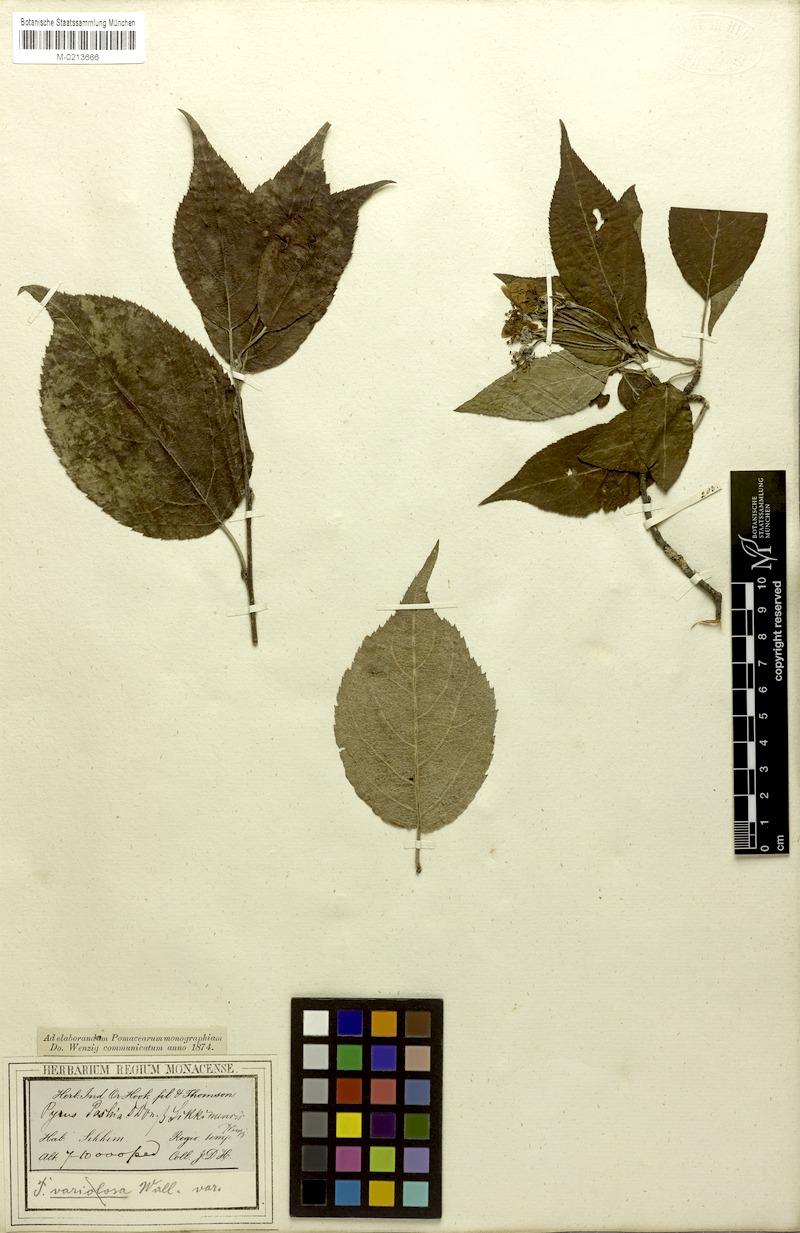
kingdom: Plantae
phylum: Tracheophyta
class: Magnoliopsida
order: Rosales
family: Rosaceae
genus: Malus
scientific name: Malus sikkimensis
